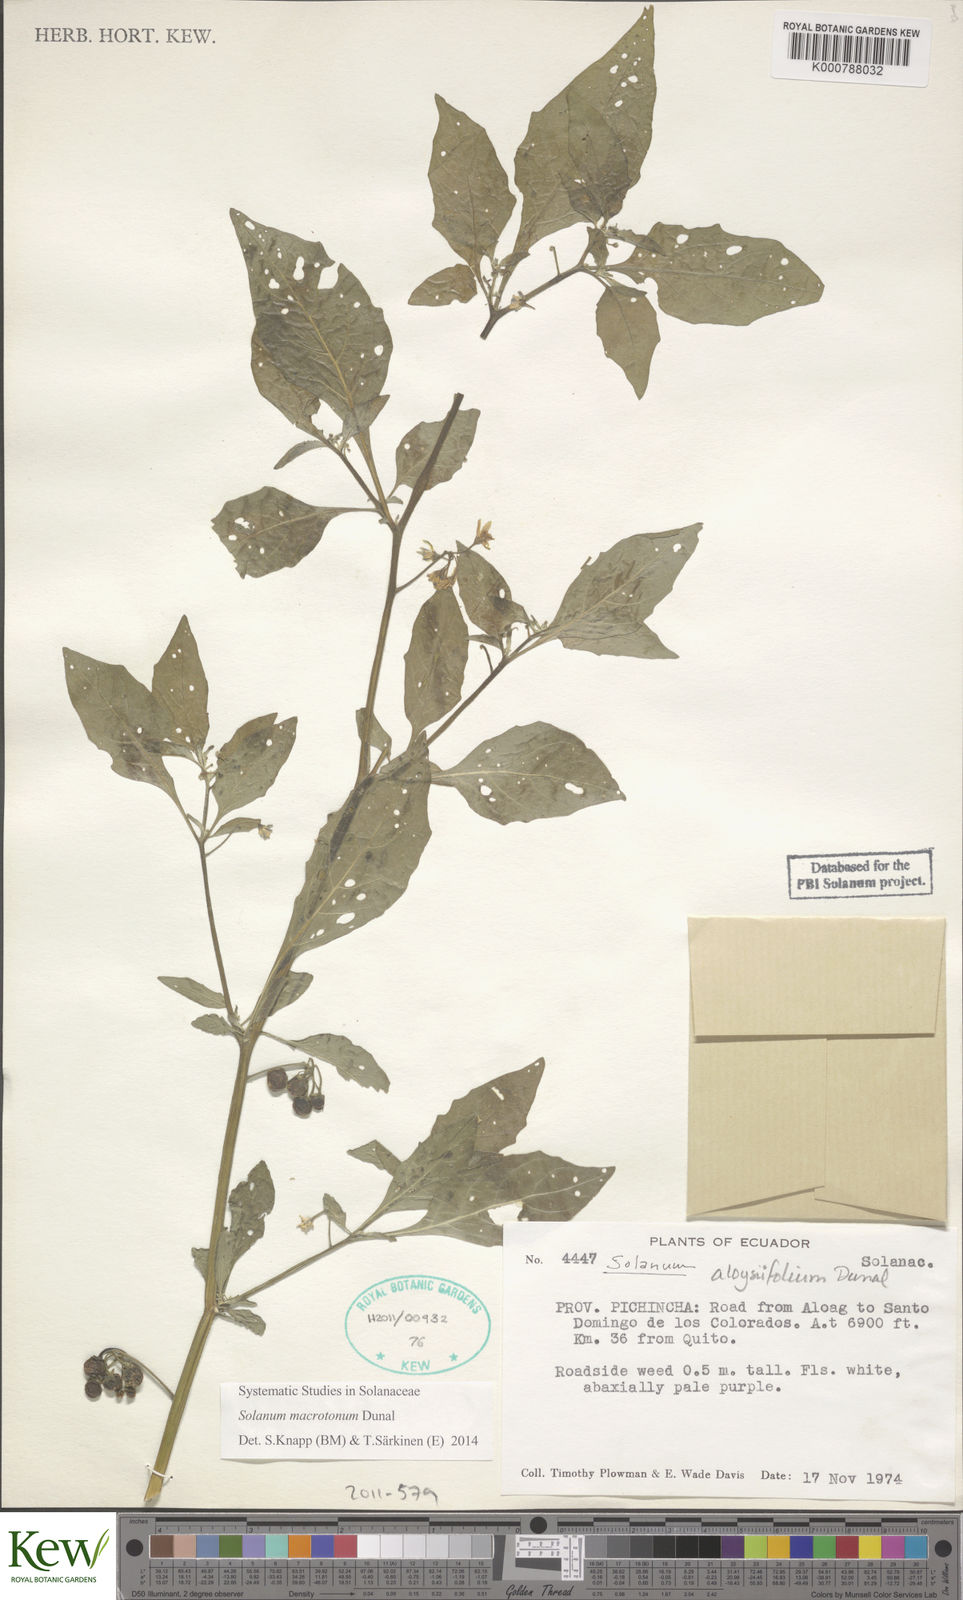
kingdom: Plantae
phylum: Tracheophyta
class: Magnoliopsida
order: Solanales
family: Solanaceae
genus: Solanum
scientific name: Solanum nigrescens
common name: Divine nightshade
